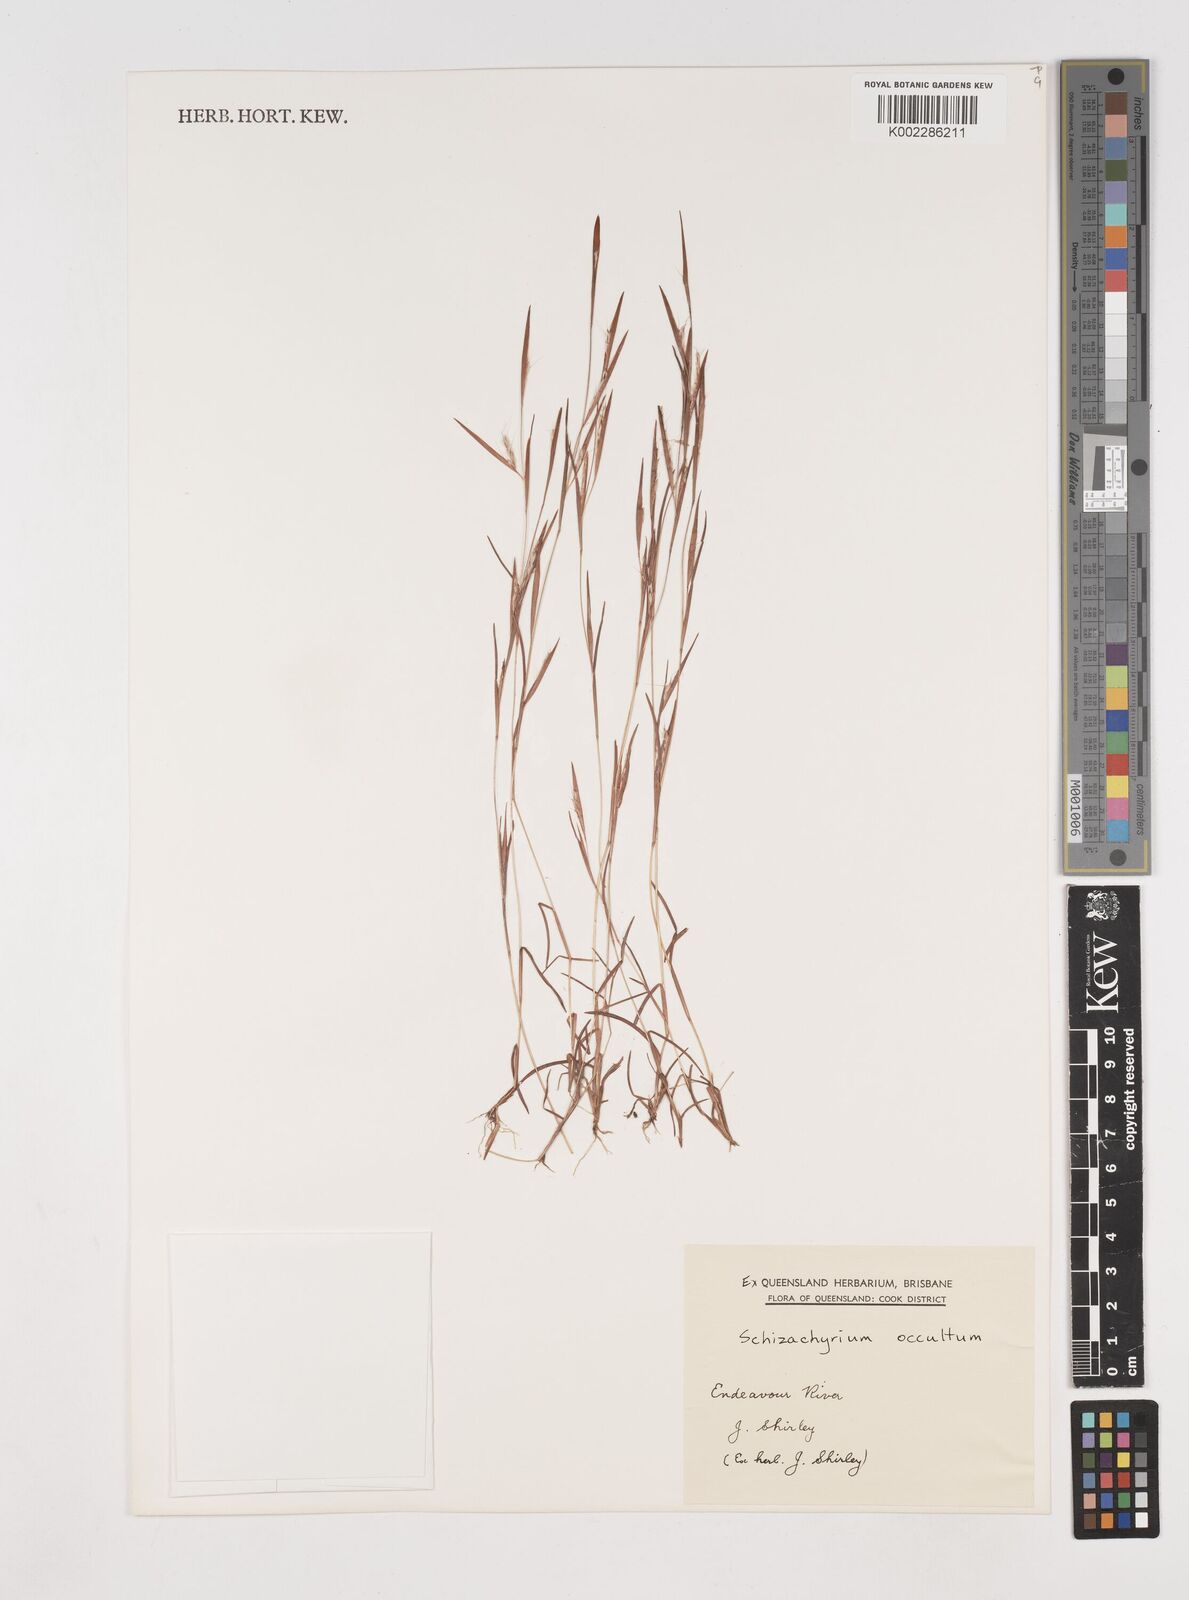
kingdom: Plantae
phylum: Tracheophyta
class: Liliopsida
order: Poales
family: Poaceae
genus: Schizachyrium
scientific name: Schizachyrium occultum
